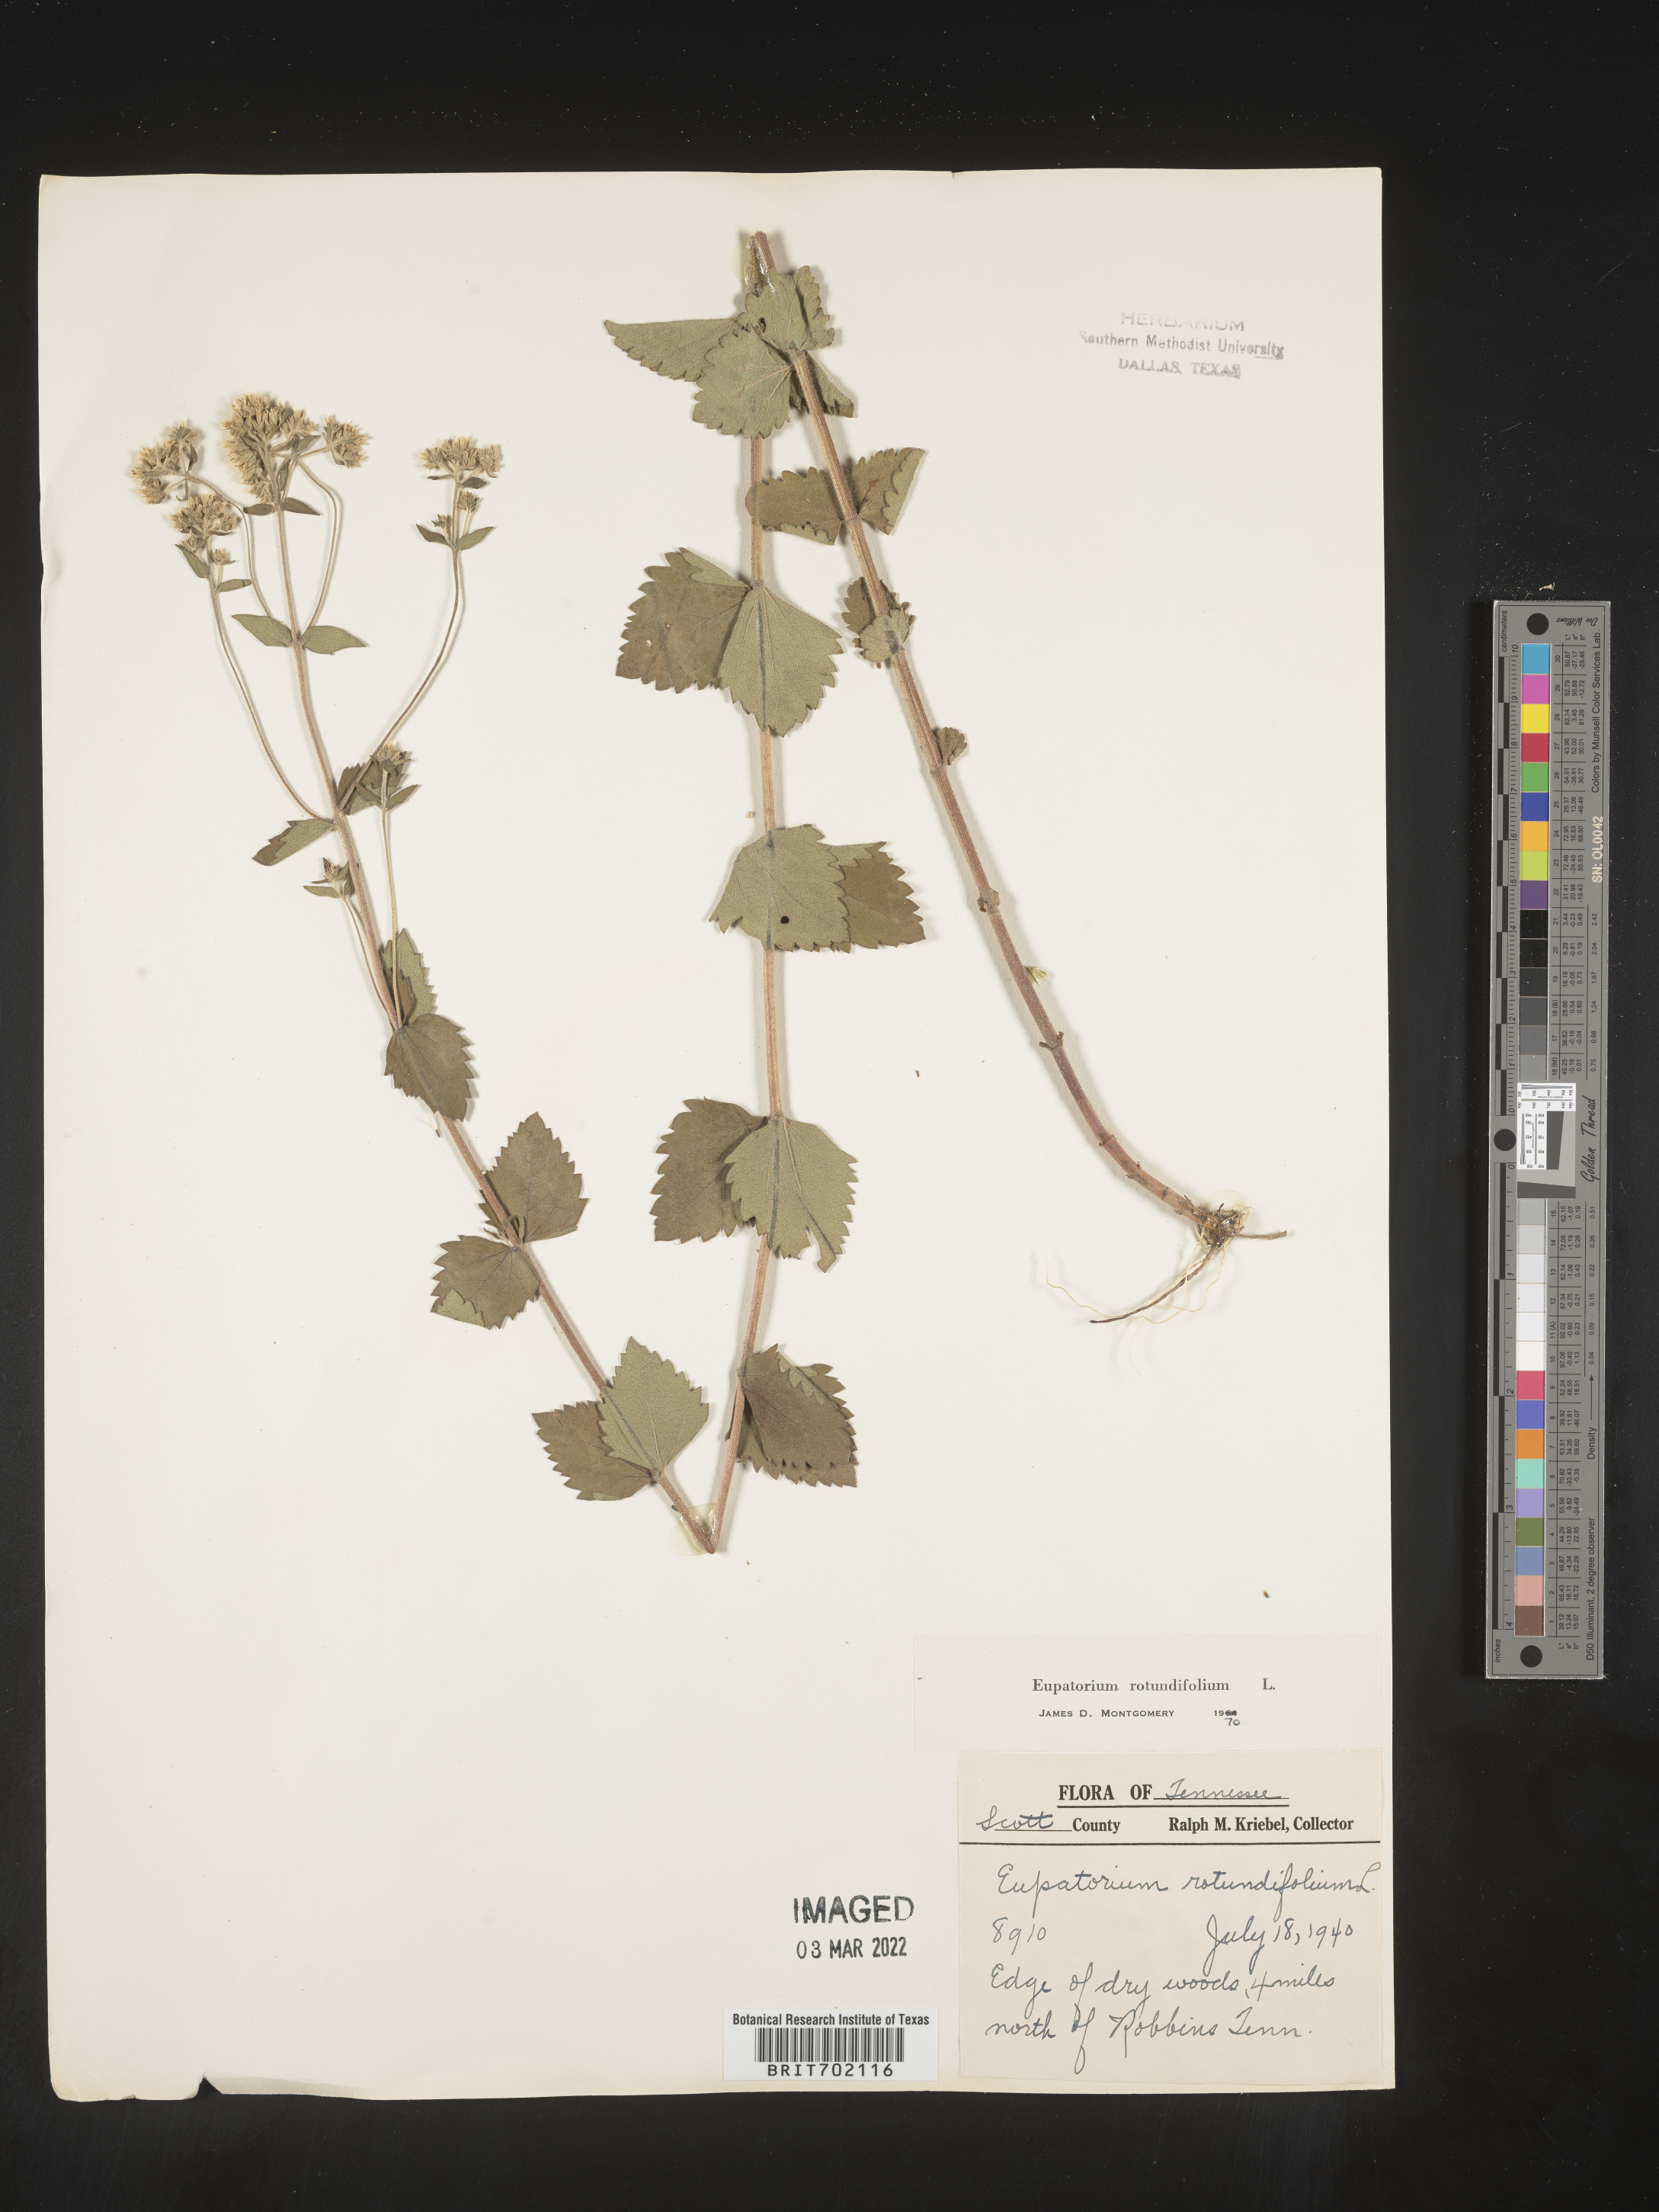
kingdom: Plantae
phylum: Tracheophyta
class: Magnoliopsida
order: Asterales
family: Asteraceae
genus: Eupatorium
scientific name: Eupatorium rotundifolium
